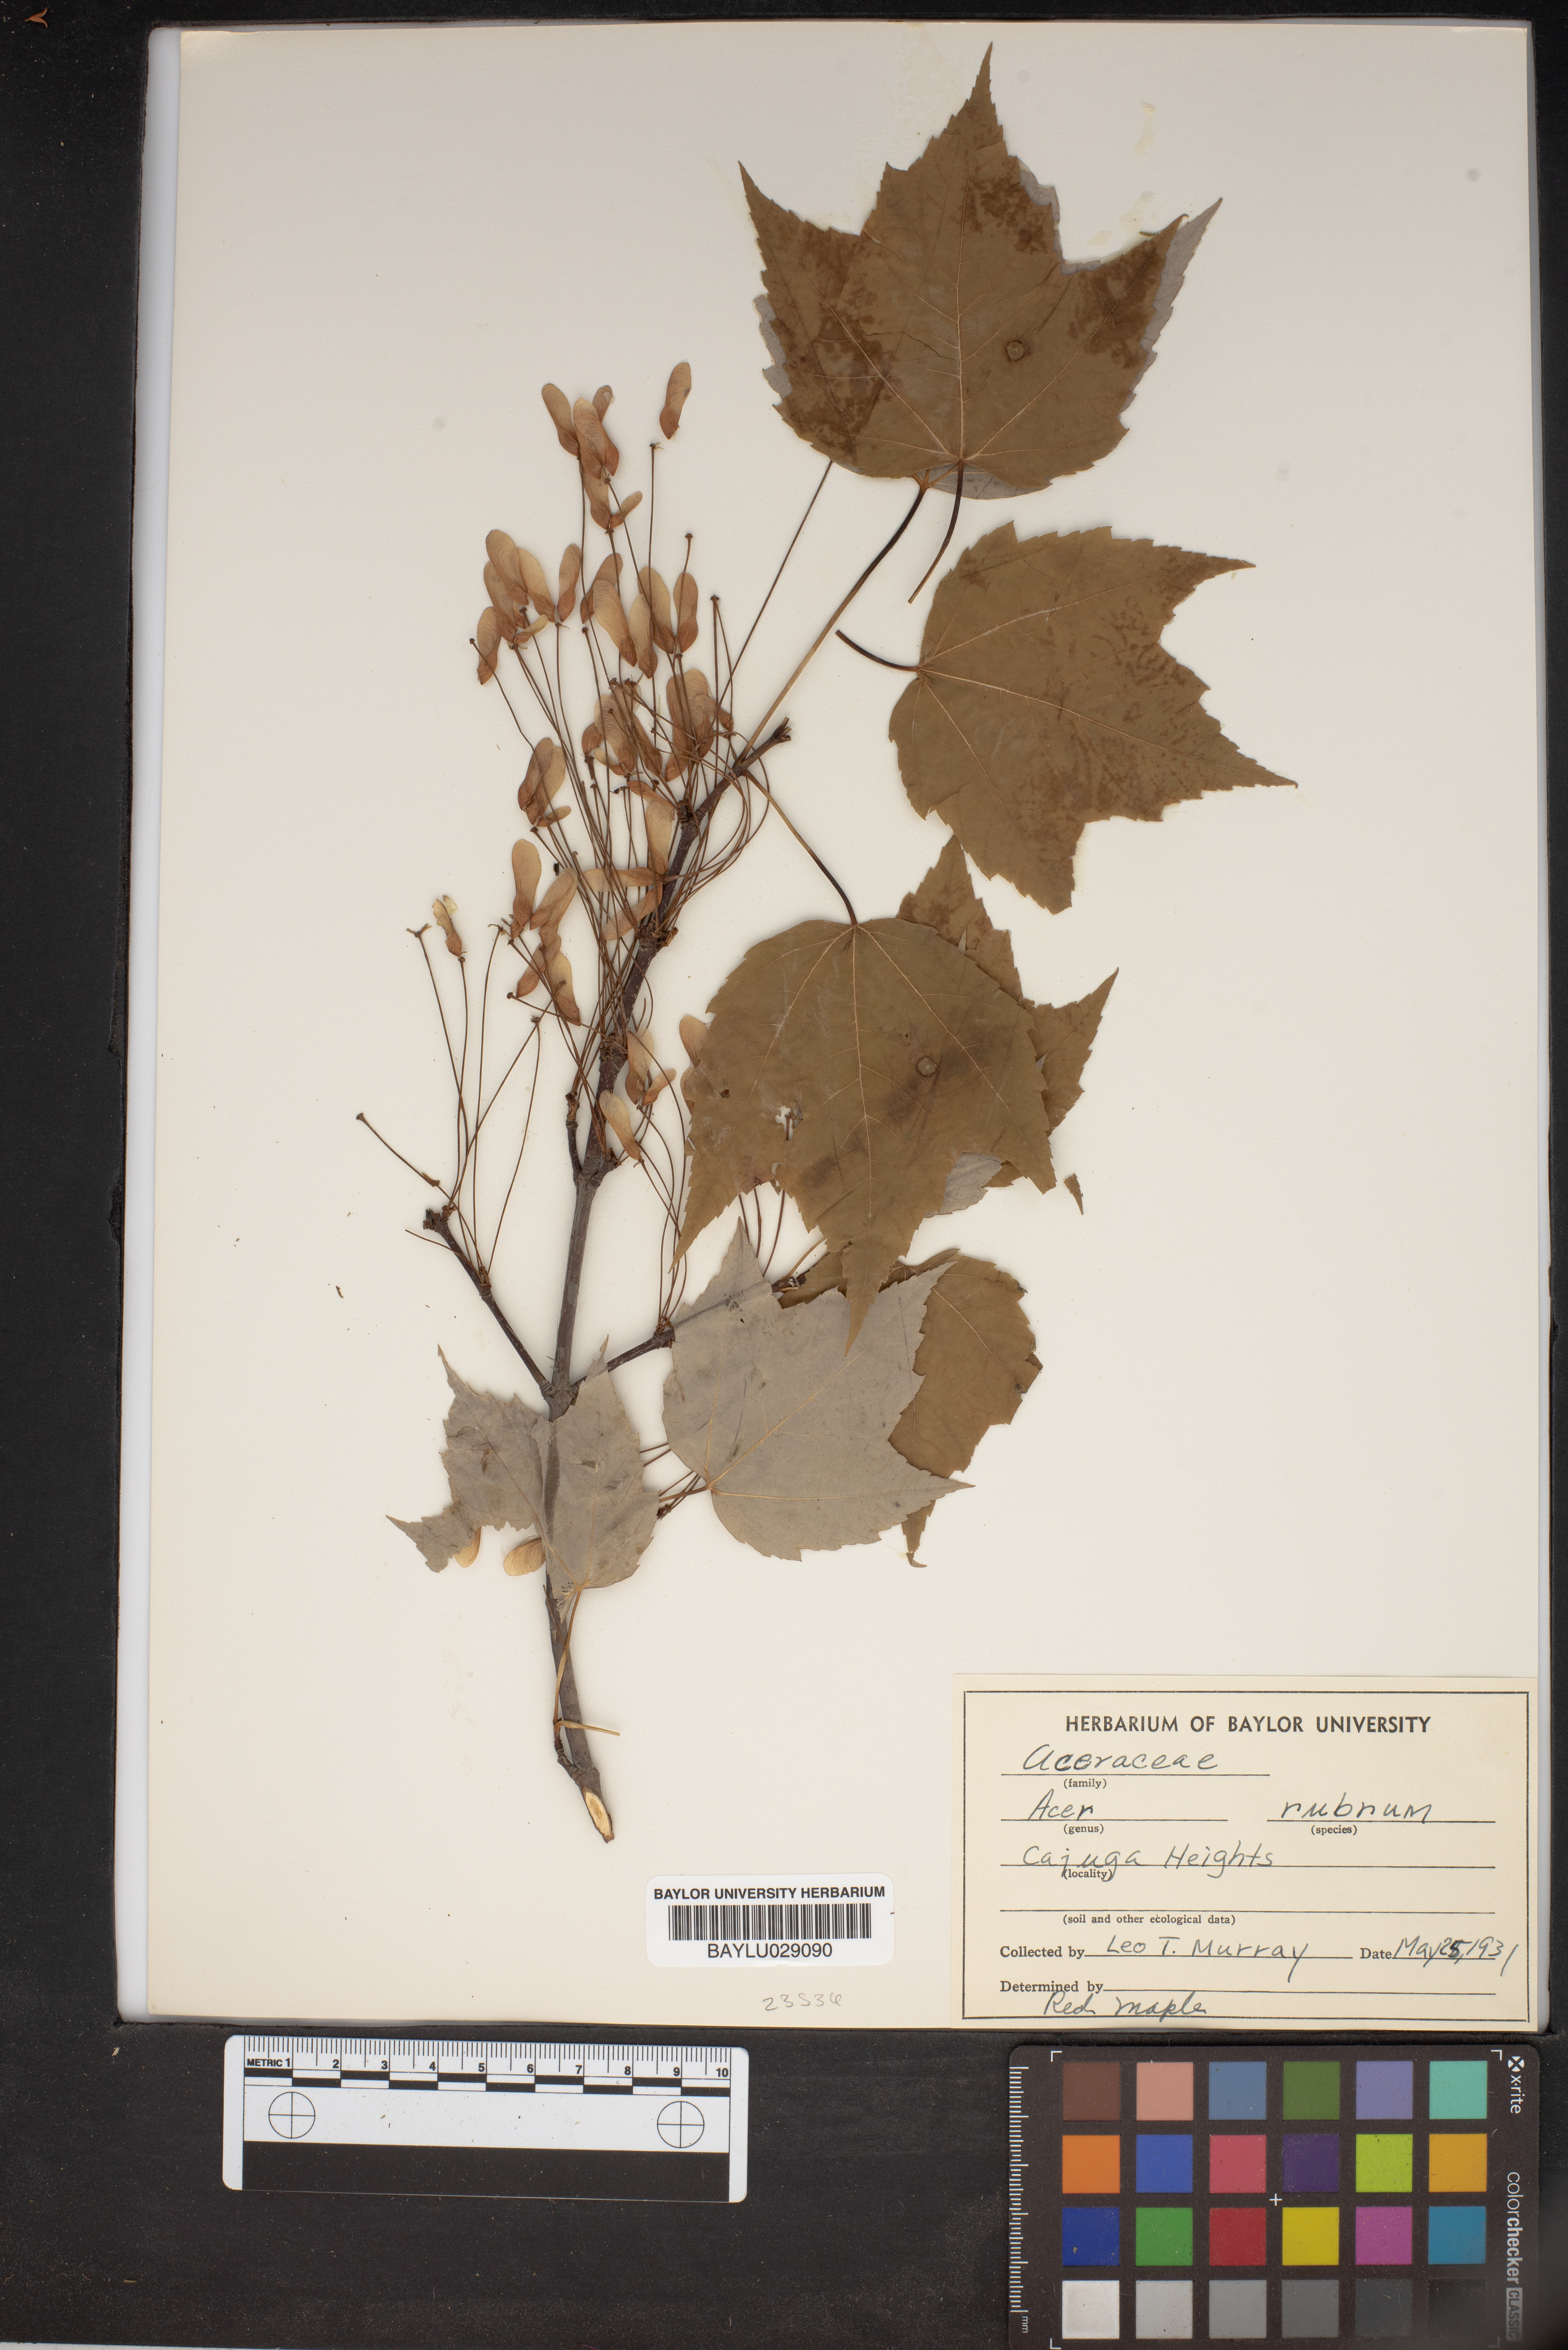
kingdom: Plantae
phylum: Tracheophyta
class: Magnoliopsida
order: Sapindales
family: Sapindaceae
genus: Acer
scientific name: Acer rubrum
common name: Red maple
